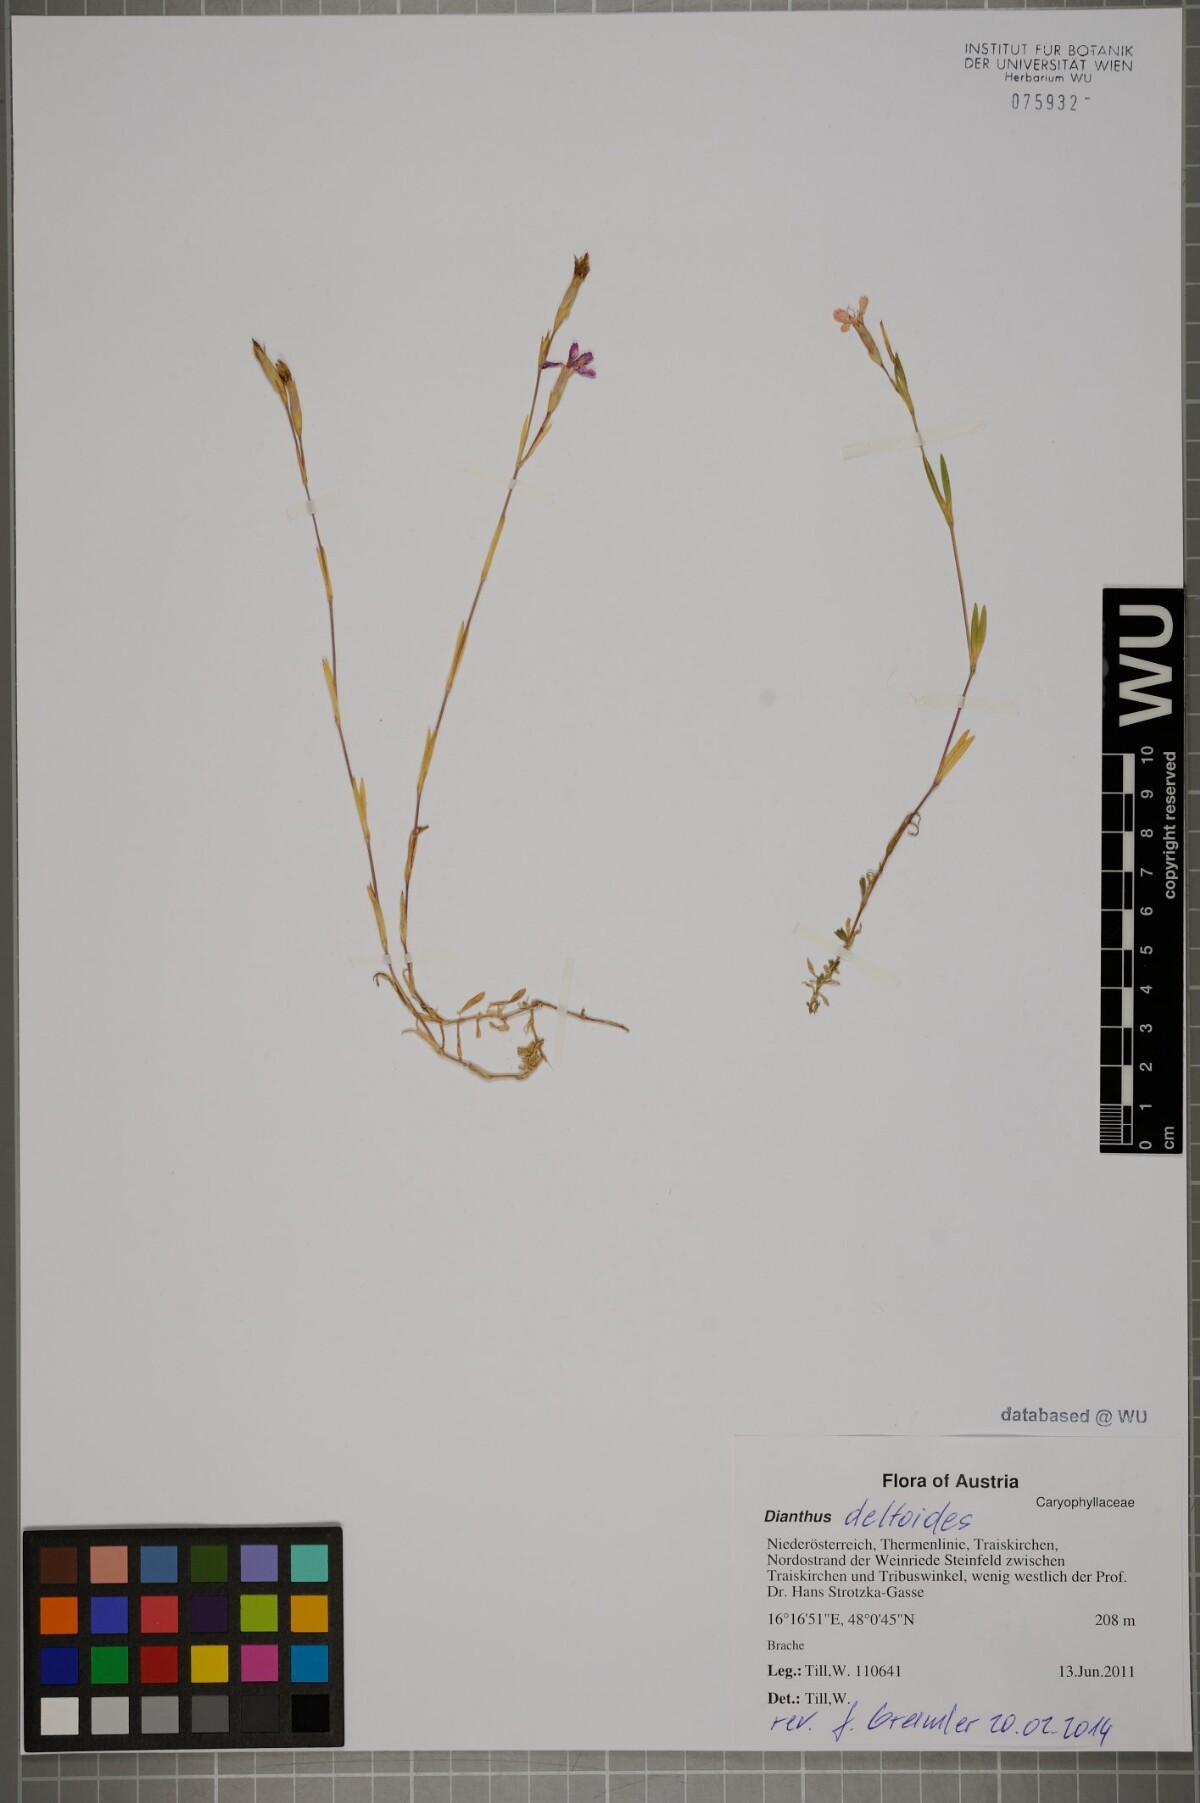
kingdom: Plantae
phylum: Tracheophyta
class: Magnoliopsida
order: Caryophyllales
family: Caryophyllaceae
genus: Dianthus
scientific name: Dianthus deltoides
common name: Maiden pink
